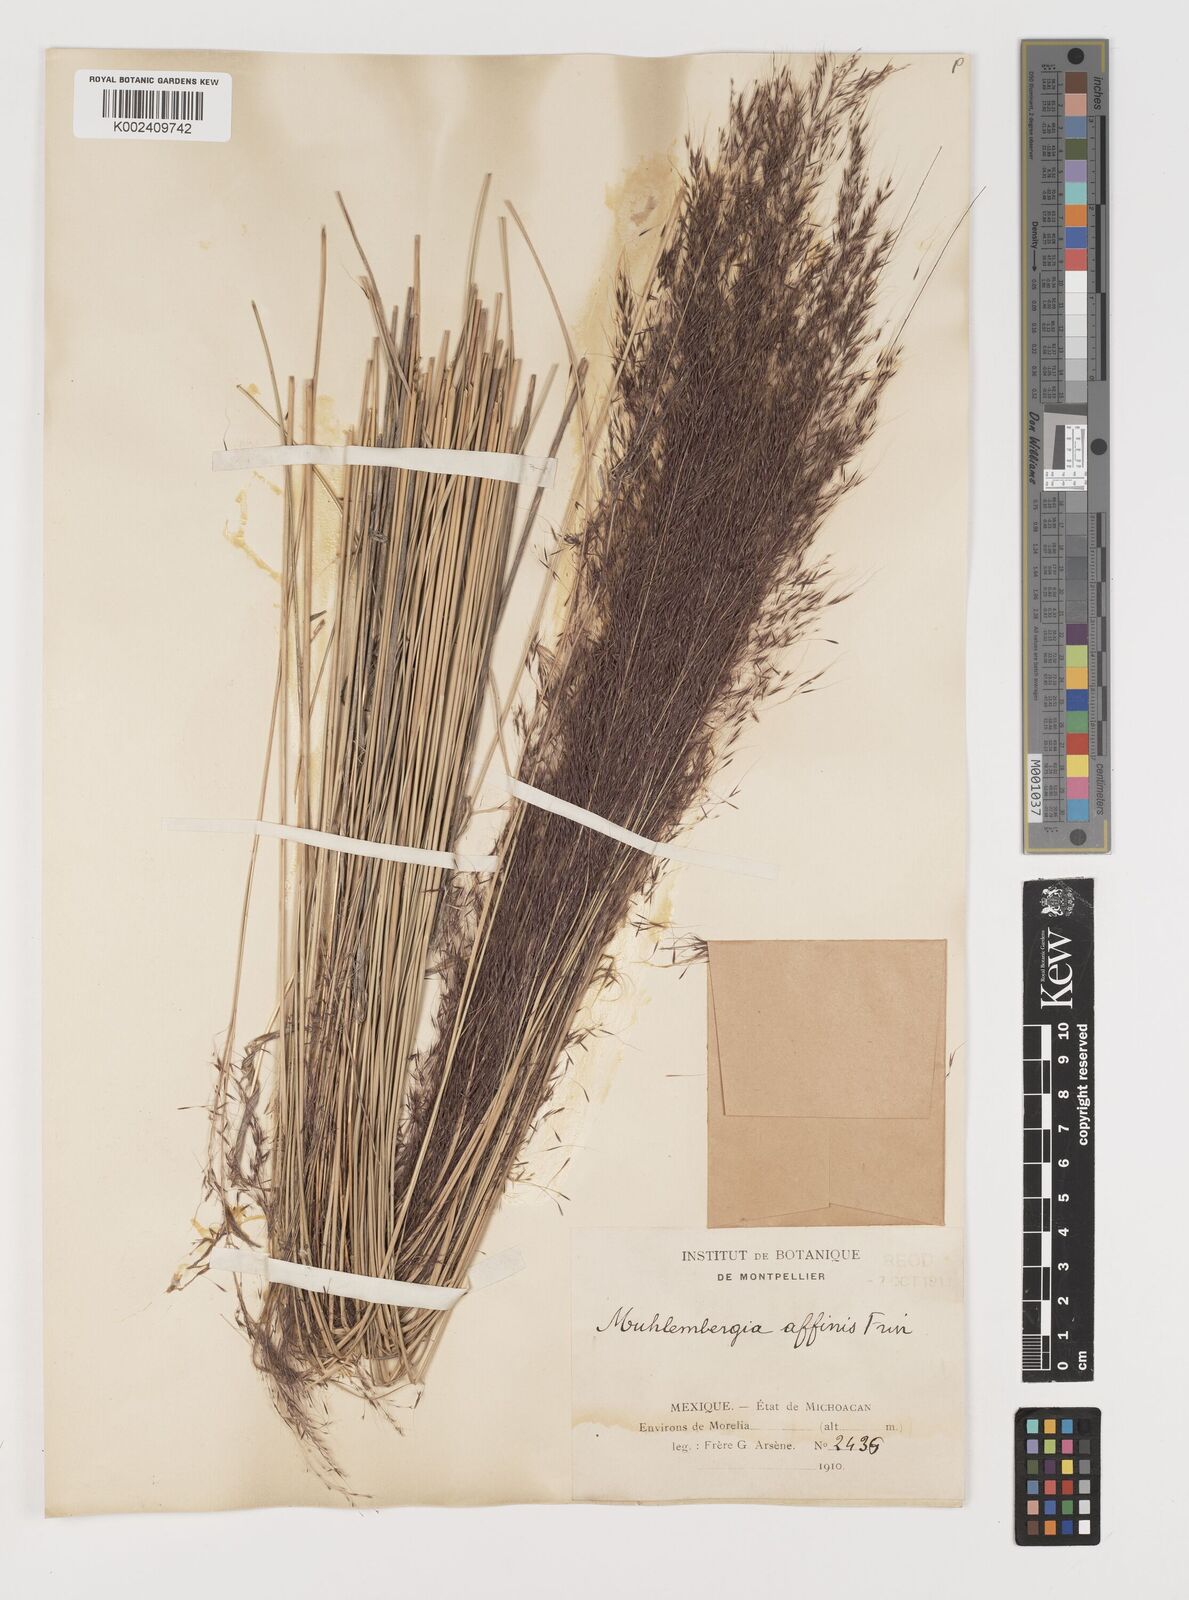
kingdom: Plantae
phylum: Tracheophyta
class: Liliopsida
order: Poales
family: Poaceae
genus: Muhlenbergia
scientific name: Muhlenbergia rigida
